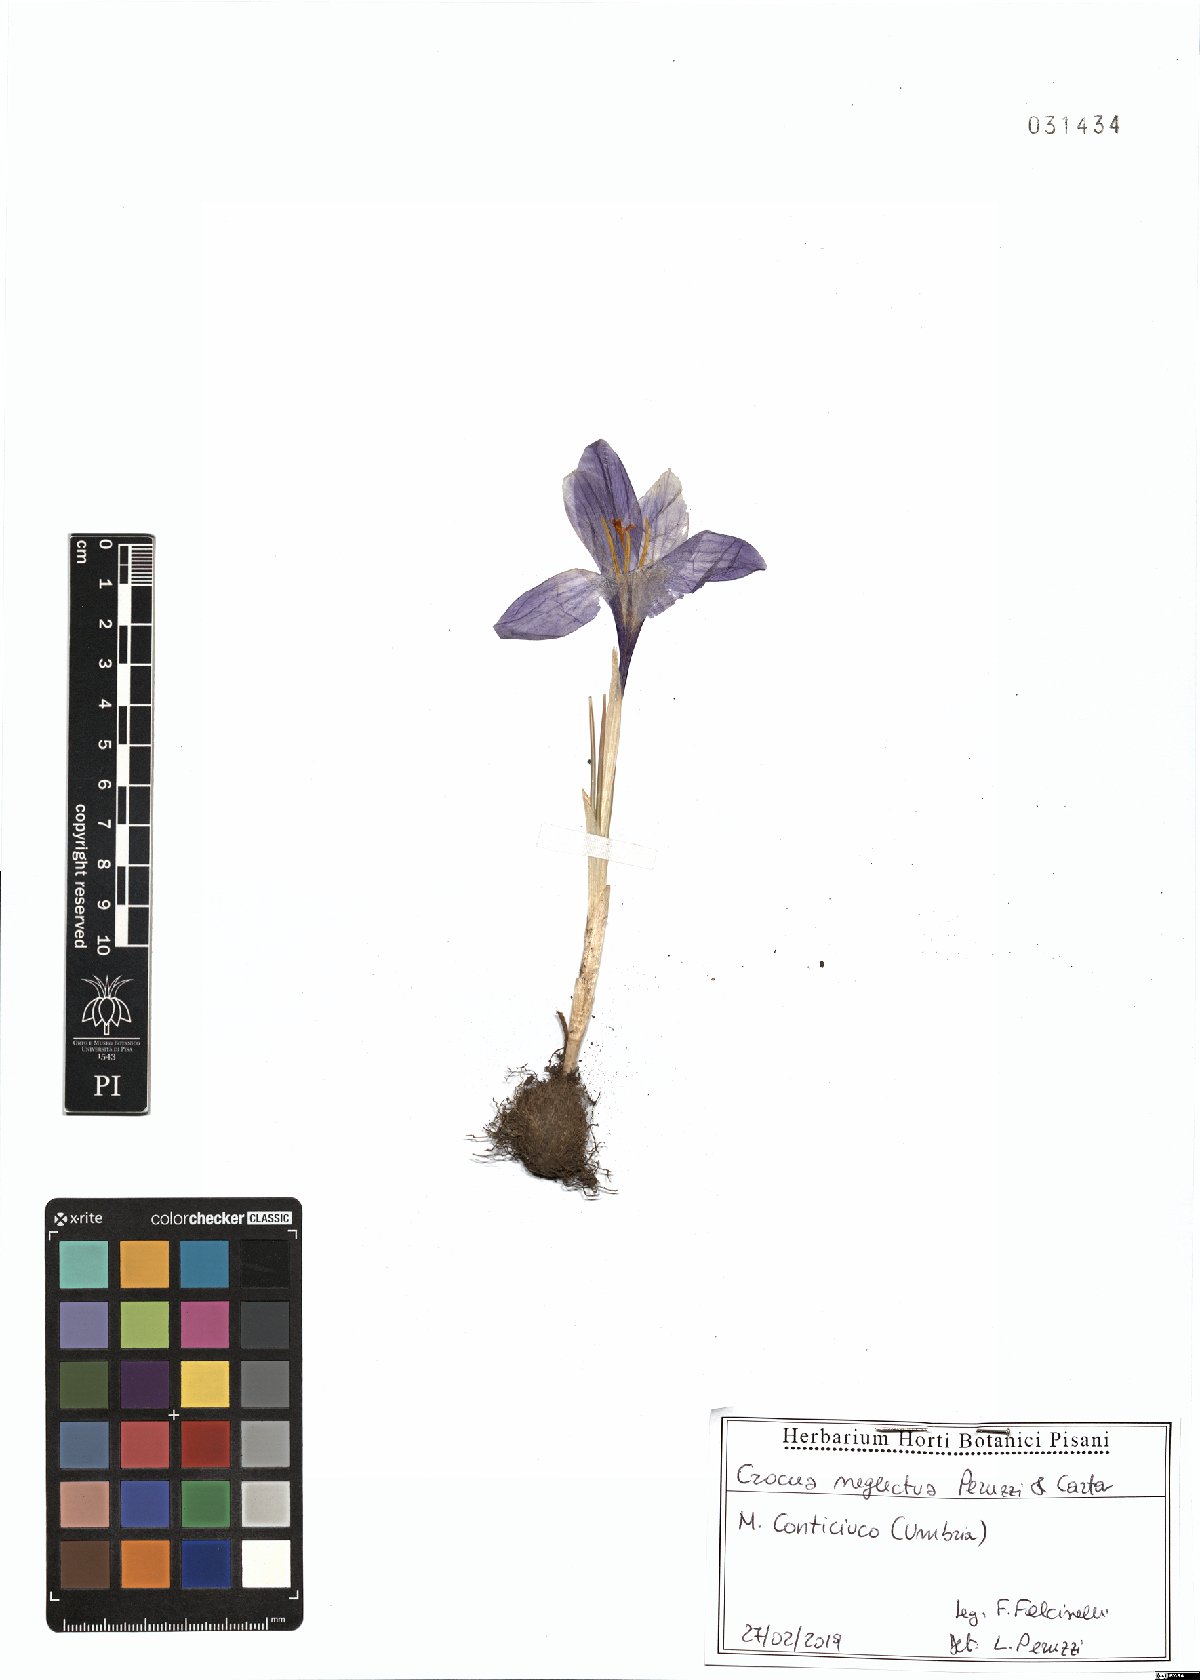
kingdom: Plantae
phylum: Tracheophyta
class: Liliopsida
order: Asparagales
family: Iridaceae
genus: Crocus
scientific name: Crocus neglectus
